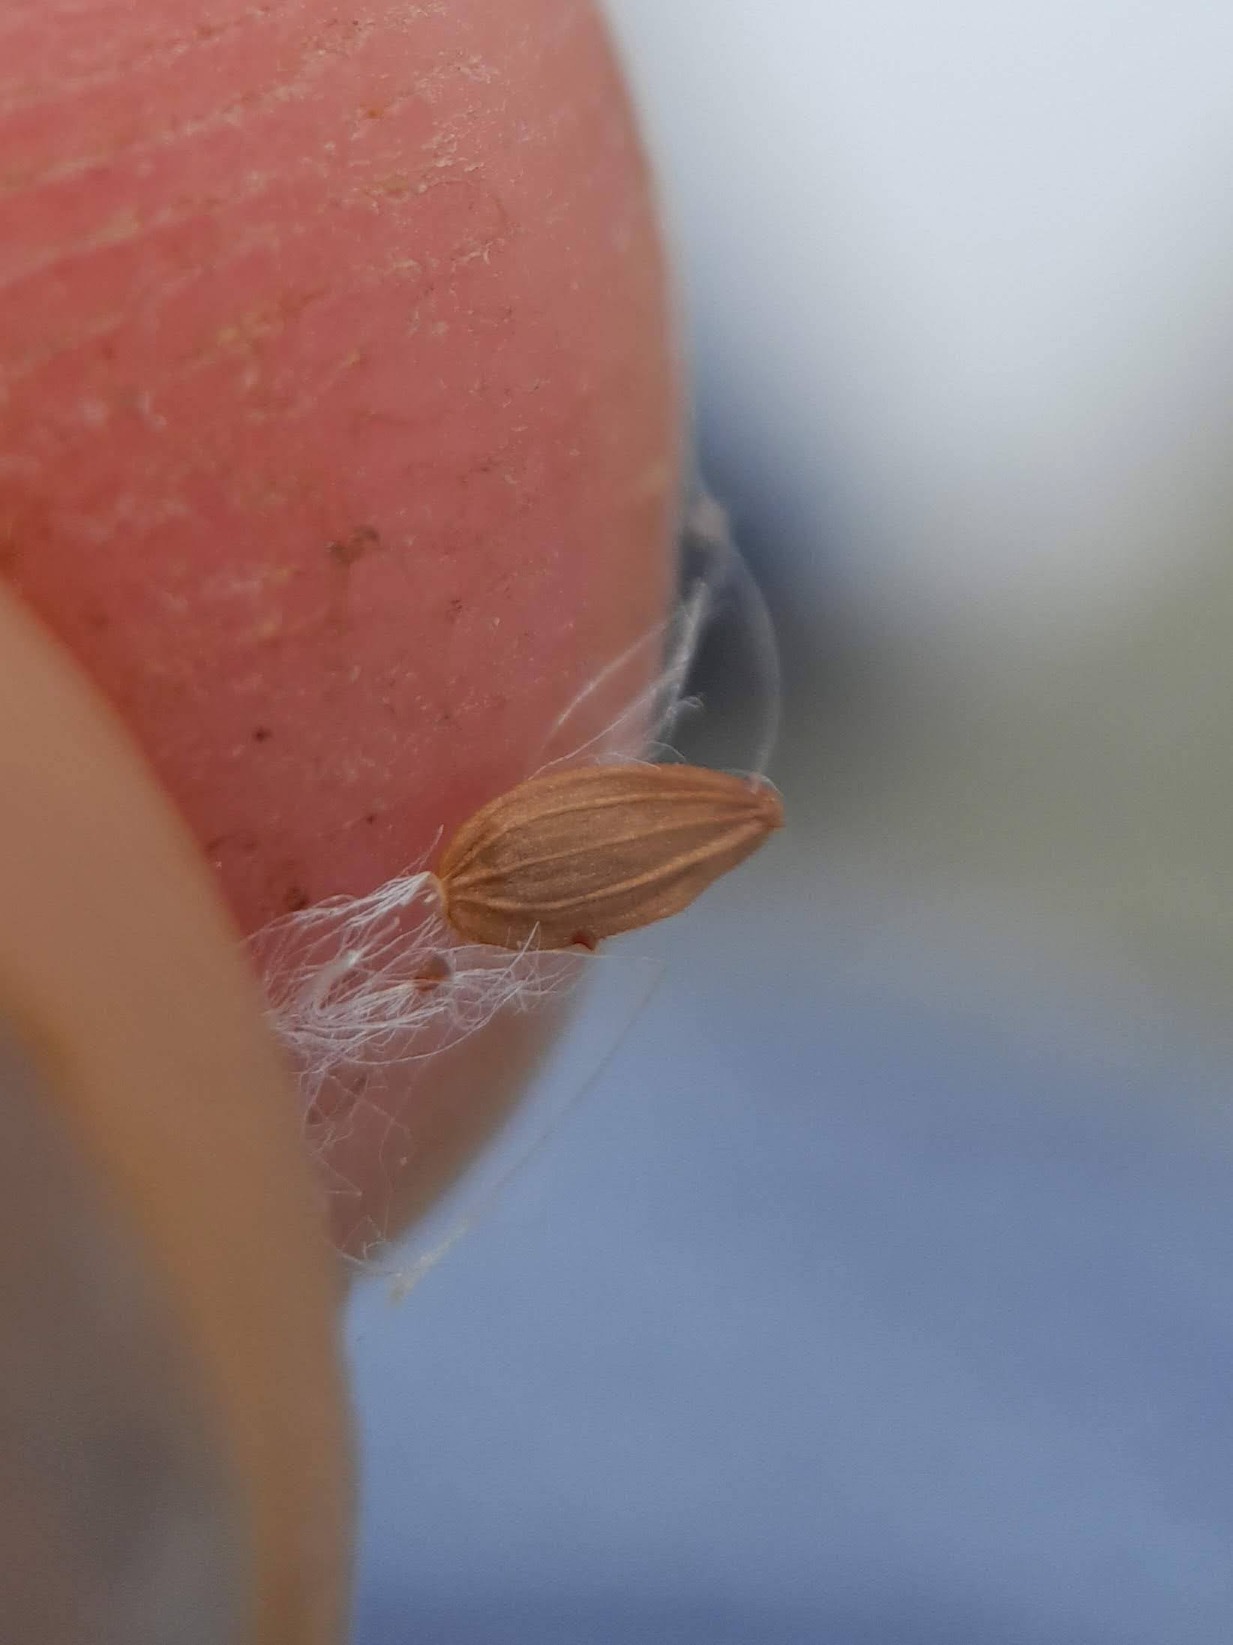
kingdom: Plantae
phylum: Tracheophyta
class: Magnoliopsida
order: Asterales
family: Asteraceae
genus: Sonchus
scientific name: Sonchus asper
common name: Ru svinemælk
